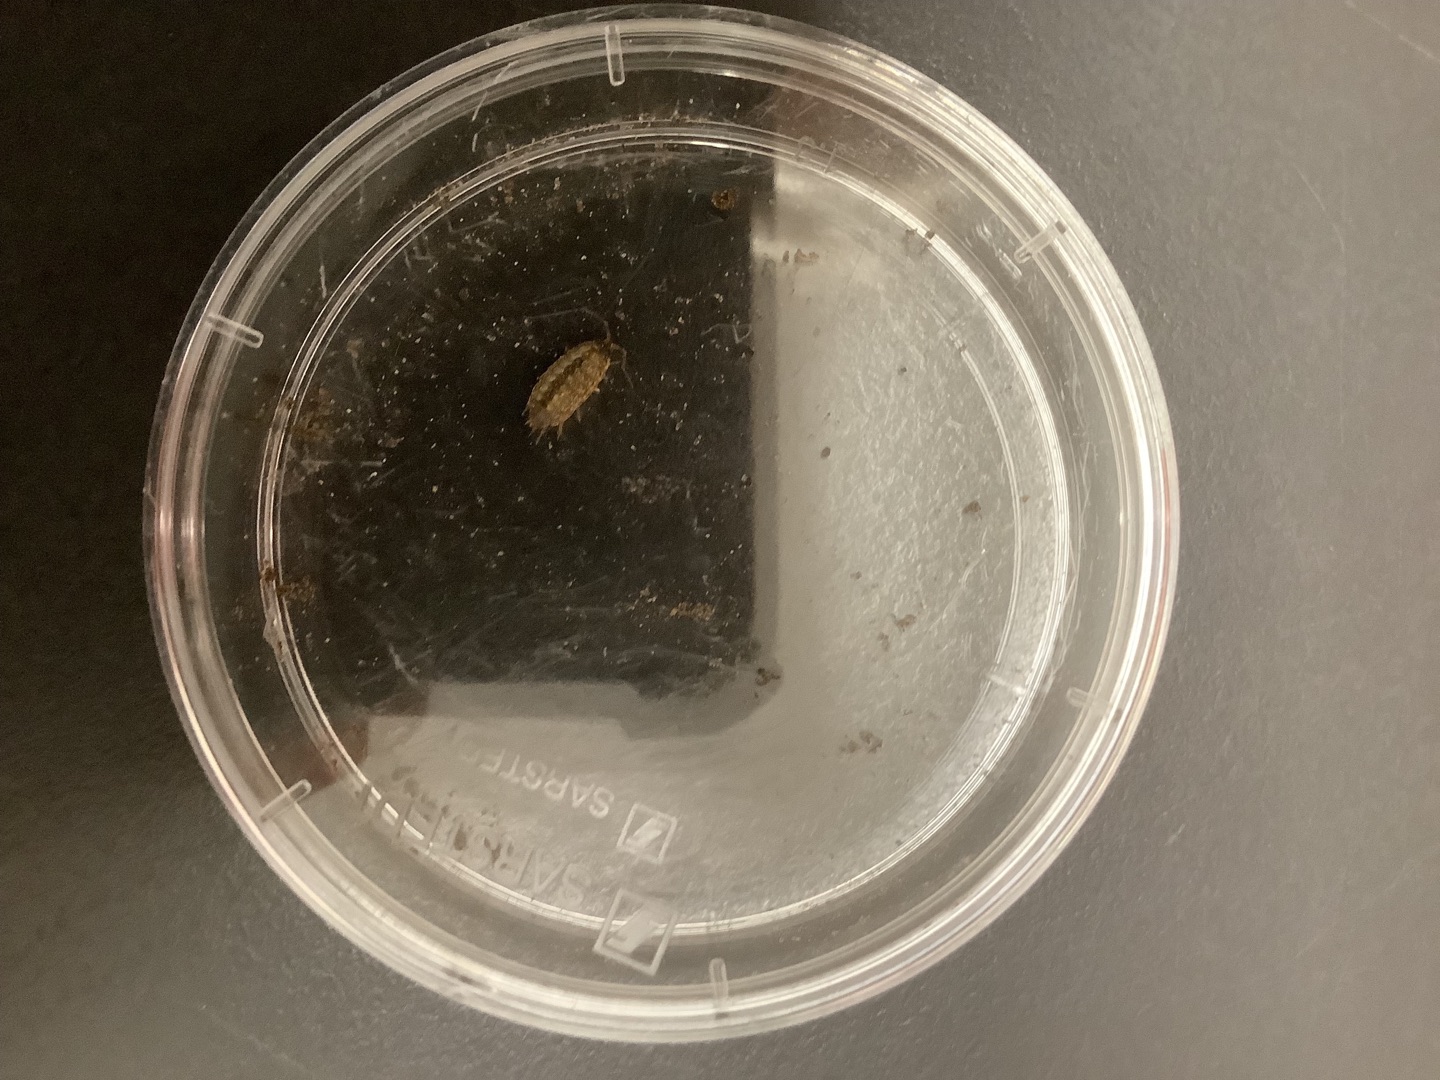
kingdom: Animalia
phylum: Arthropoda
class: Malacostraca
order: Isopoda
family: Philosciidae
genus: Philoscia
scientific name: Philoscia muscorum
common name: Langbenet bænkebider
